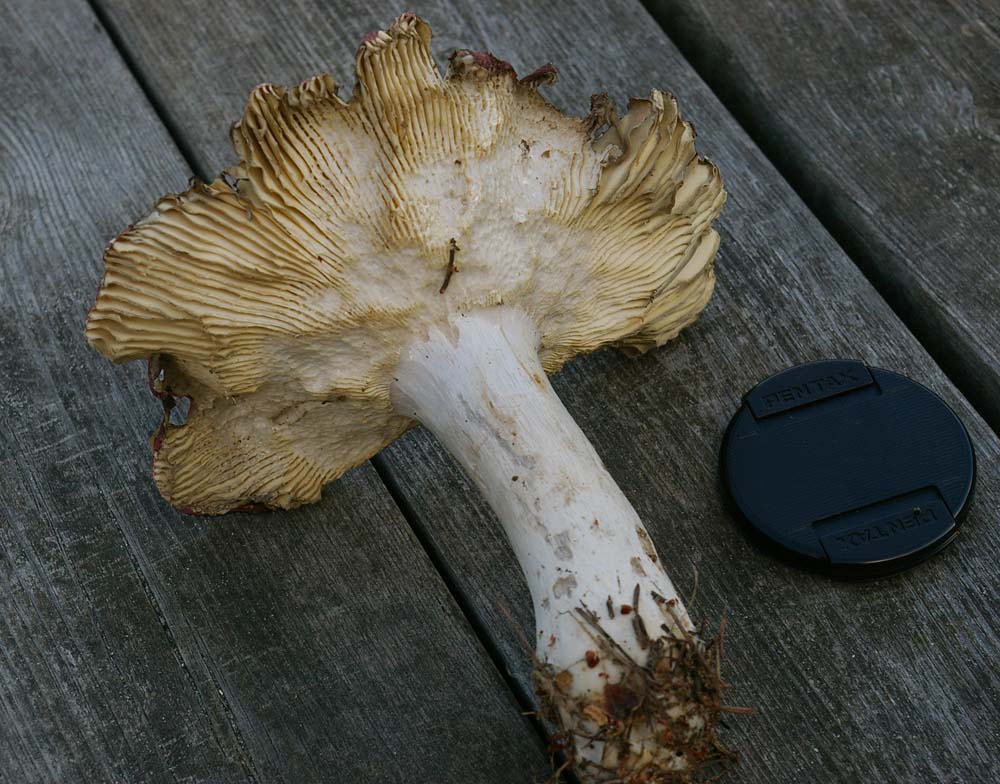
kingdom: Fungi
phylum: Basidiomycota
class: Agaricomycetes
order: Russulales
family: Russulaceae
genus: Russula
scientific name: Russula vinosa
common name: vinrød skørhat
